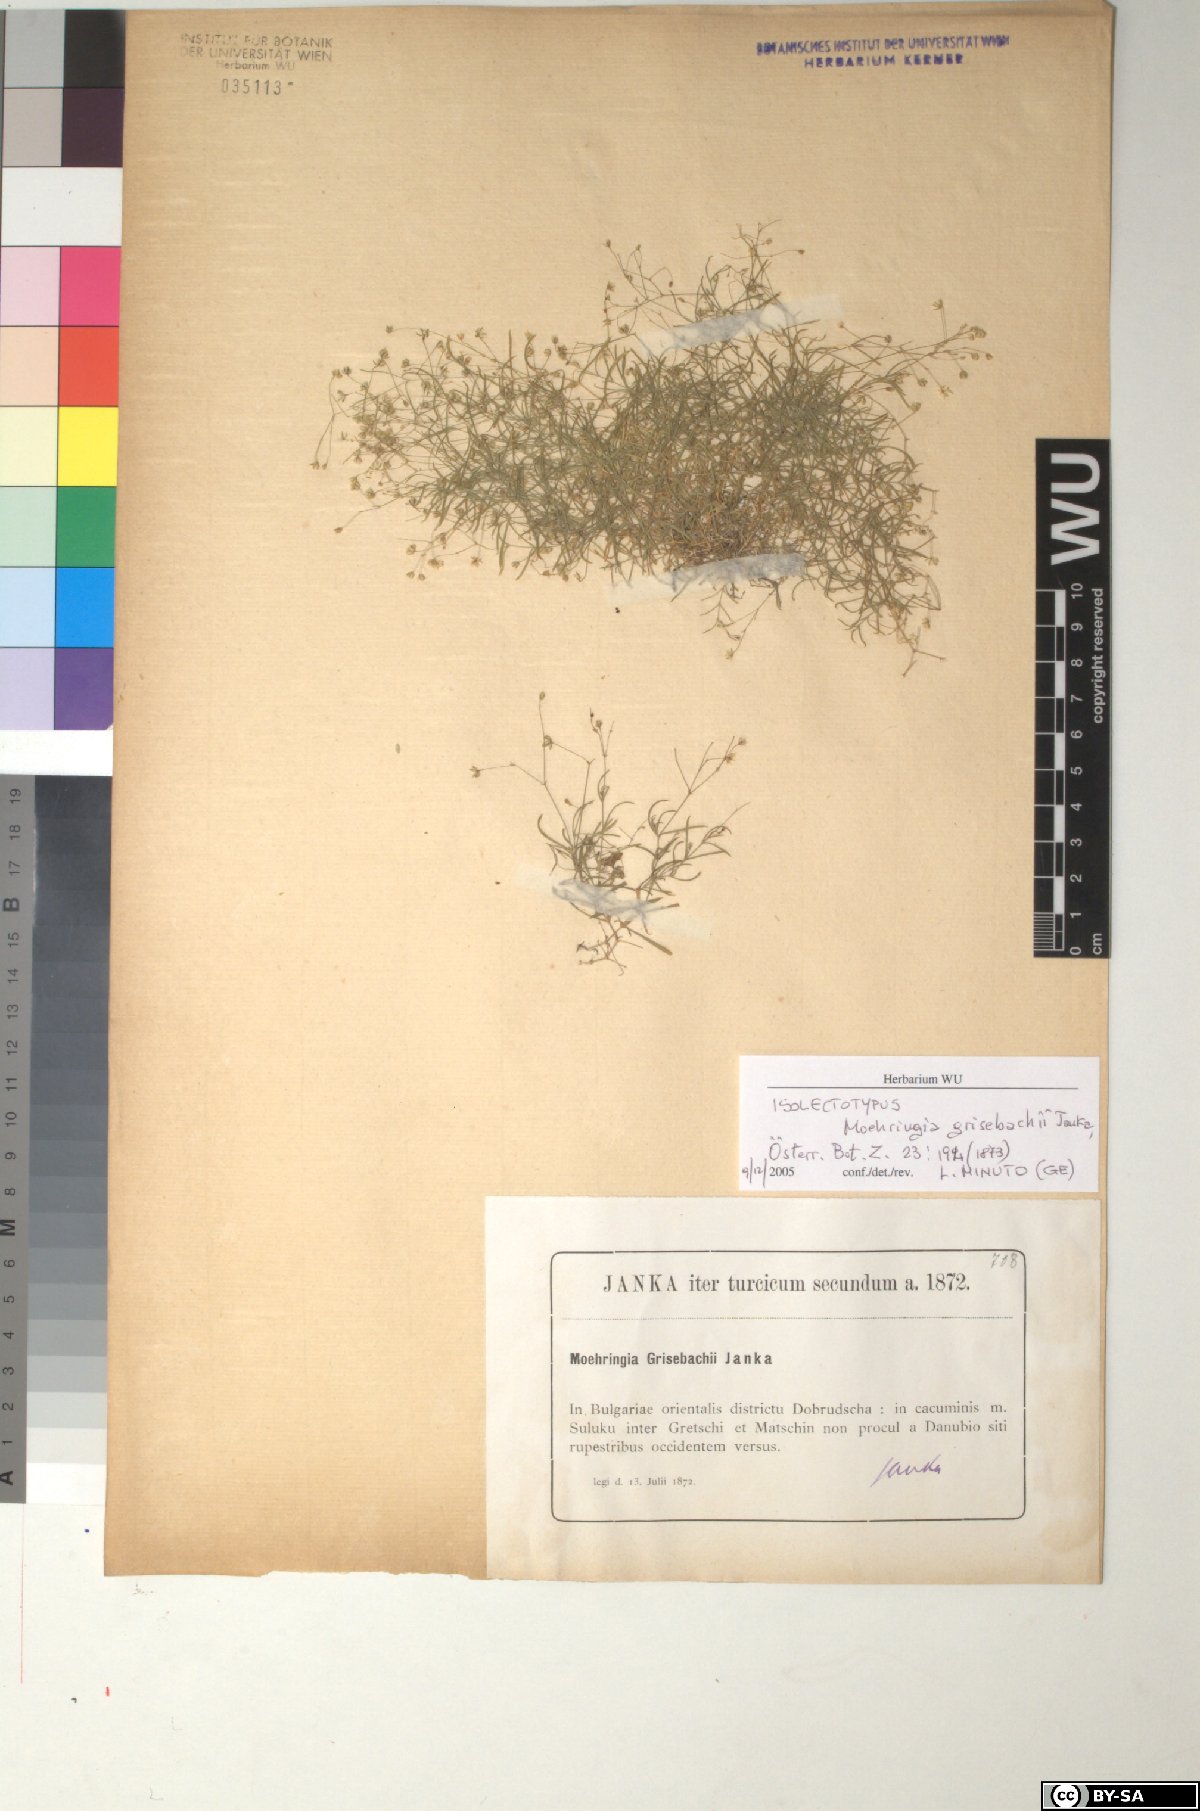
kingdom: Plantae
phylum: Tracheophyta
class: Magnoliopsida
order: Caryophyllales
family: Caryophyllaceae
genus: Moehringia
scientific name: Moehringia grisebachii
